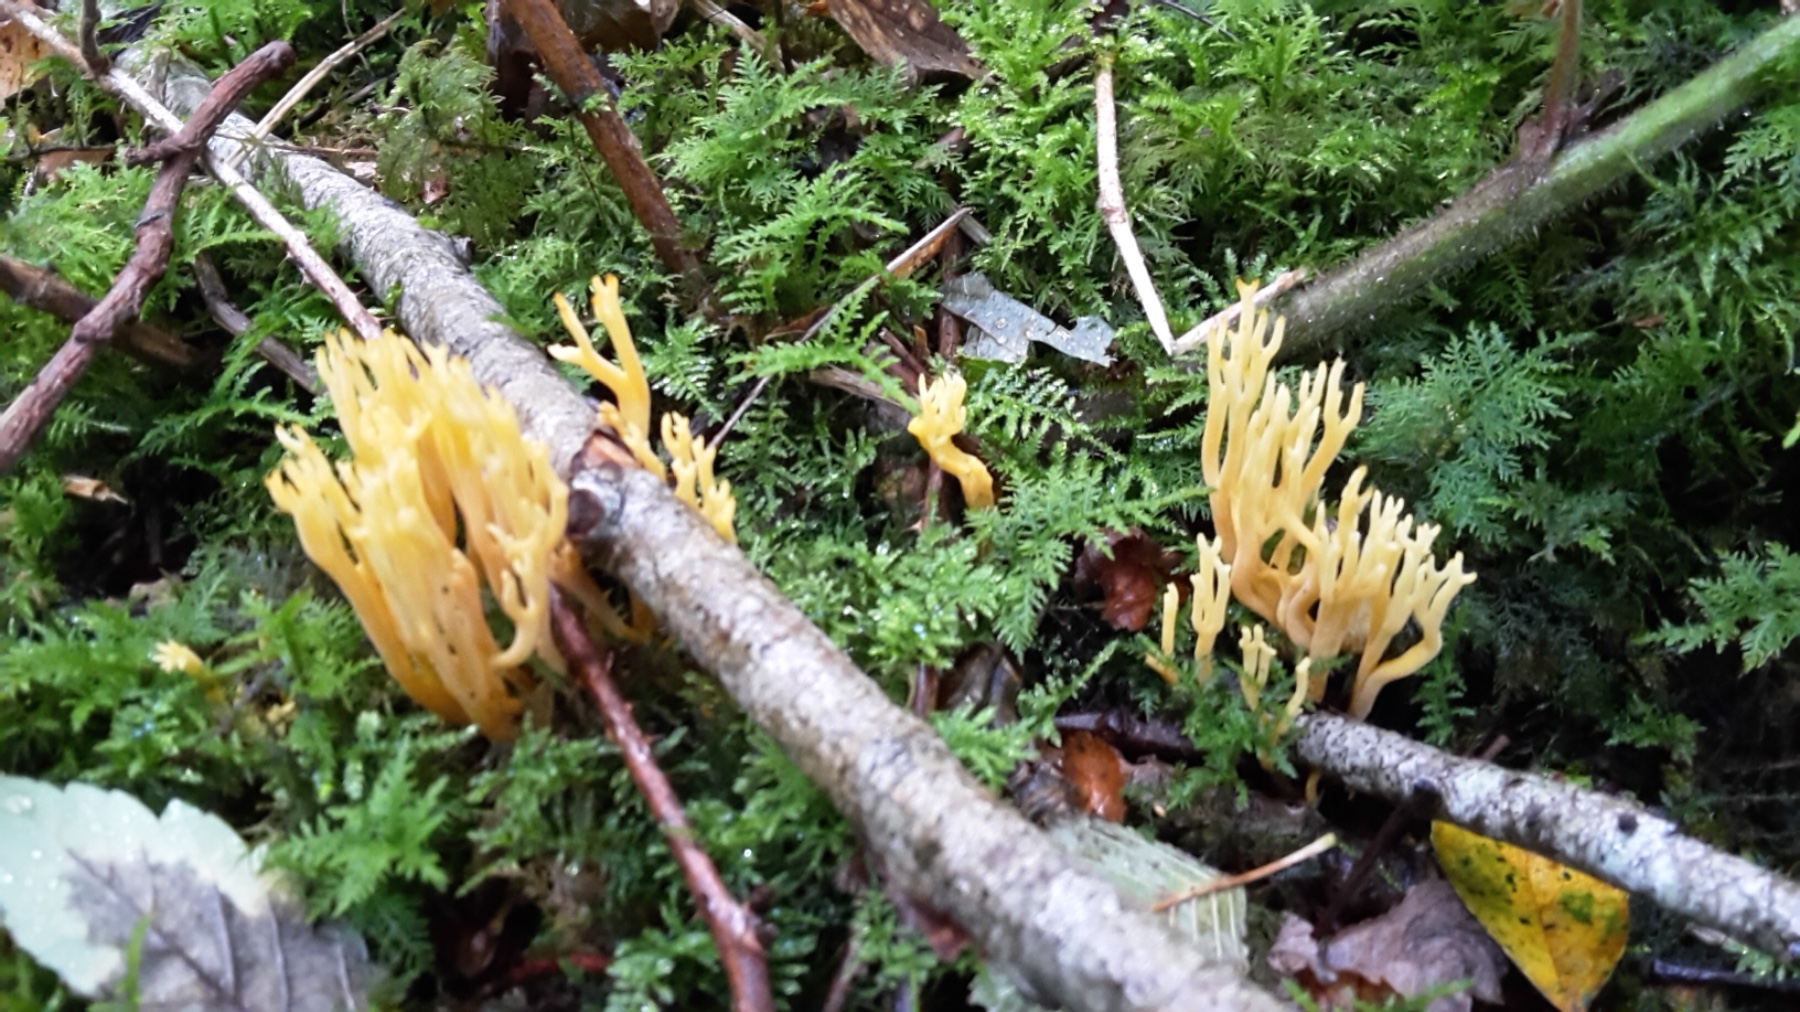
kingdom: Fungi
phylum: Basidiomycota
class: Agaricomycetes
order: Agaricales
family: Clavariaceae
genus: Clavulinopsis
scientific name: Clavulinopsis corniculata
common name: eng-køllesvamp
